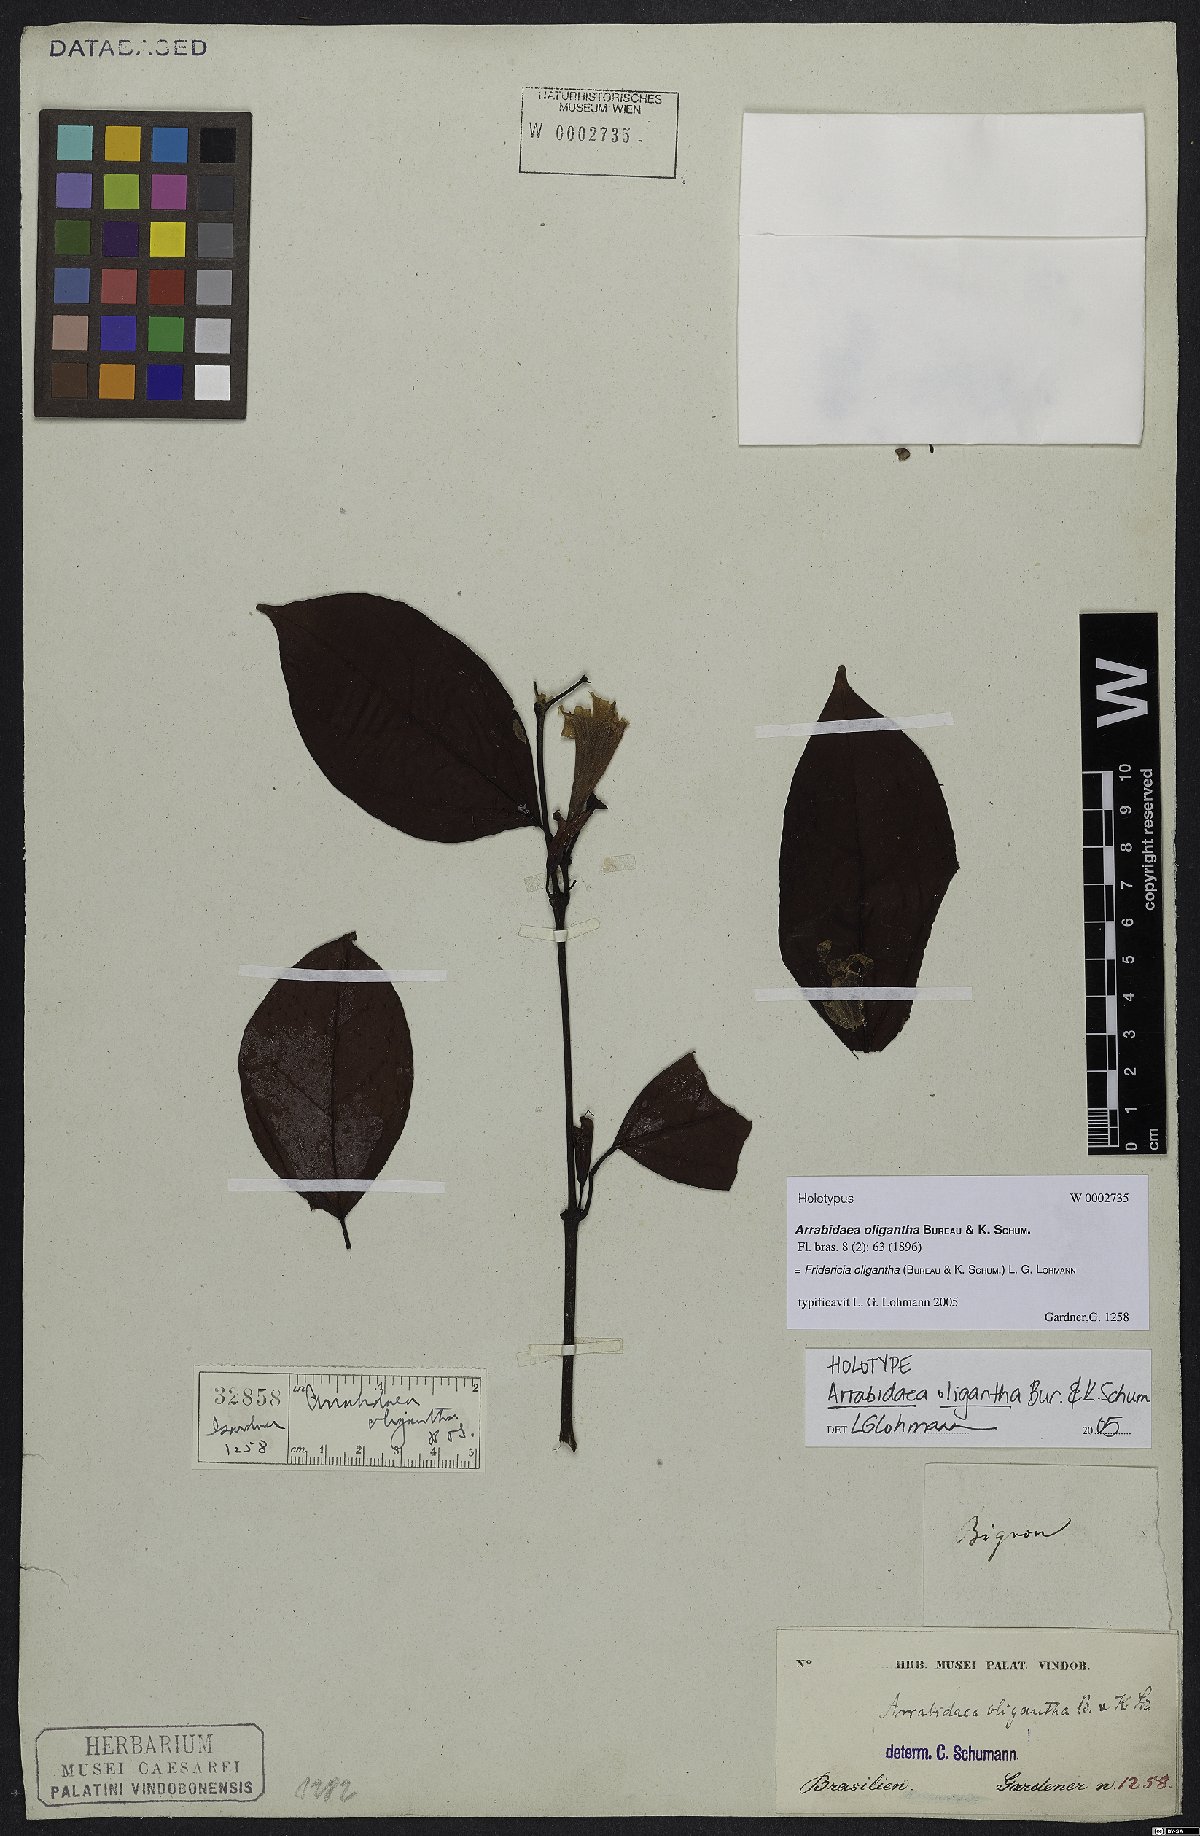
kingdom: Plantae
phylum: Tracheophyta
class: Magnoliopsida
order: Lamiales
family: Bignoniaceae
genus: Fridericia
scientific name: Fridericia japurensis
